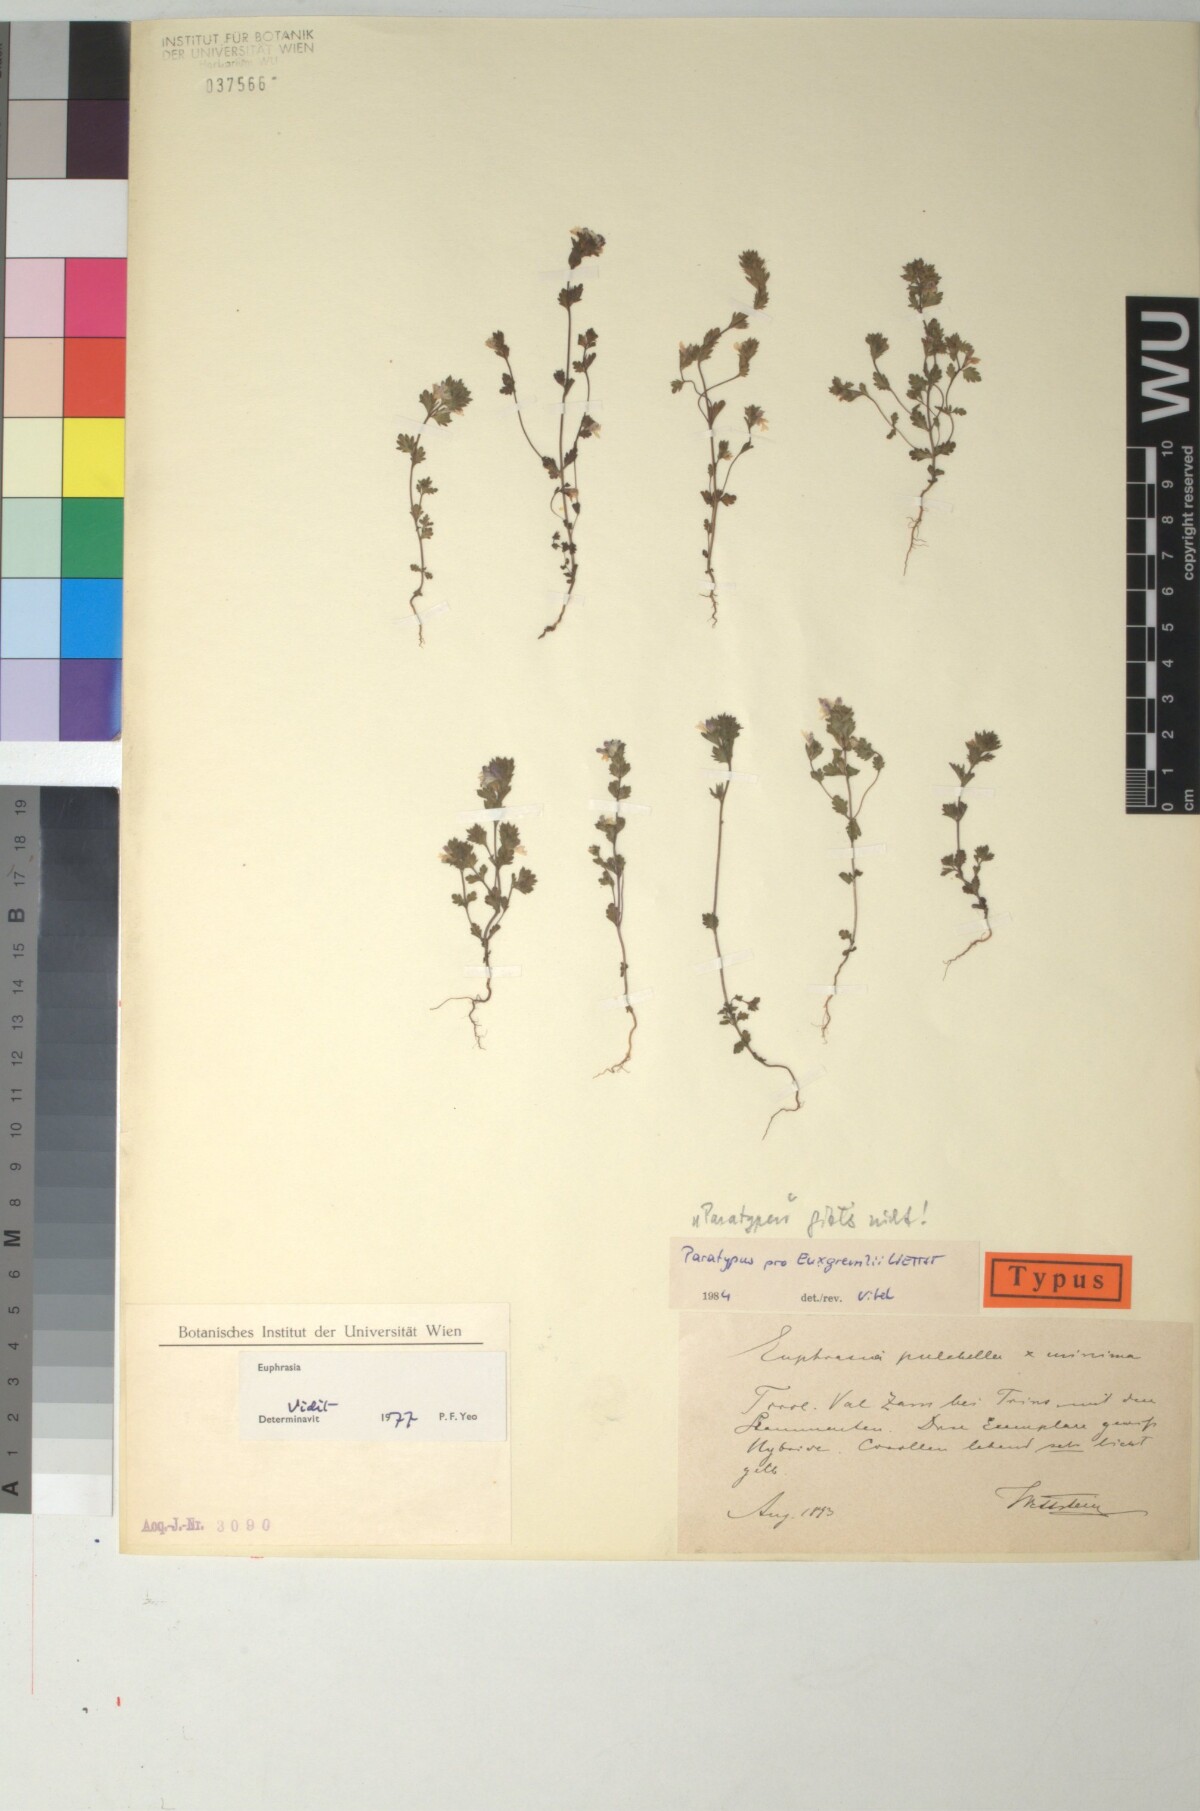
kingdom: Plantae
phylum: Tracheophyta
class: Magnoliopsida
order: Lamiales
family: Scrophulariaceae
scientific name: Scrophulariaceae
